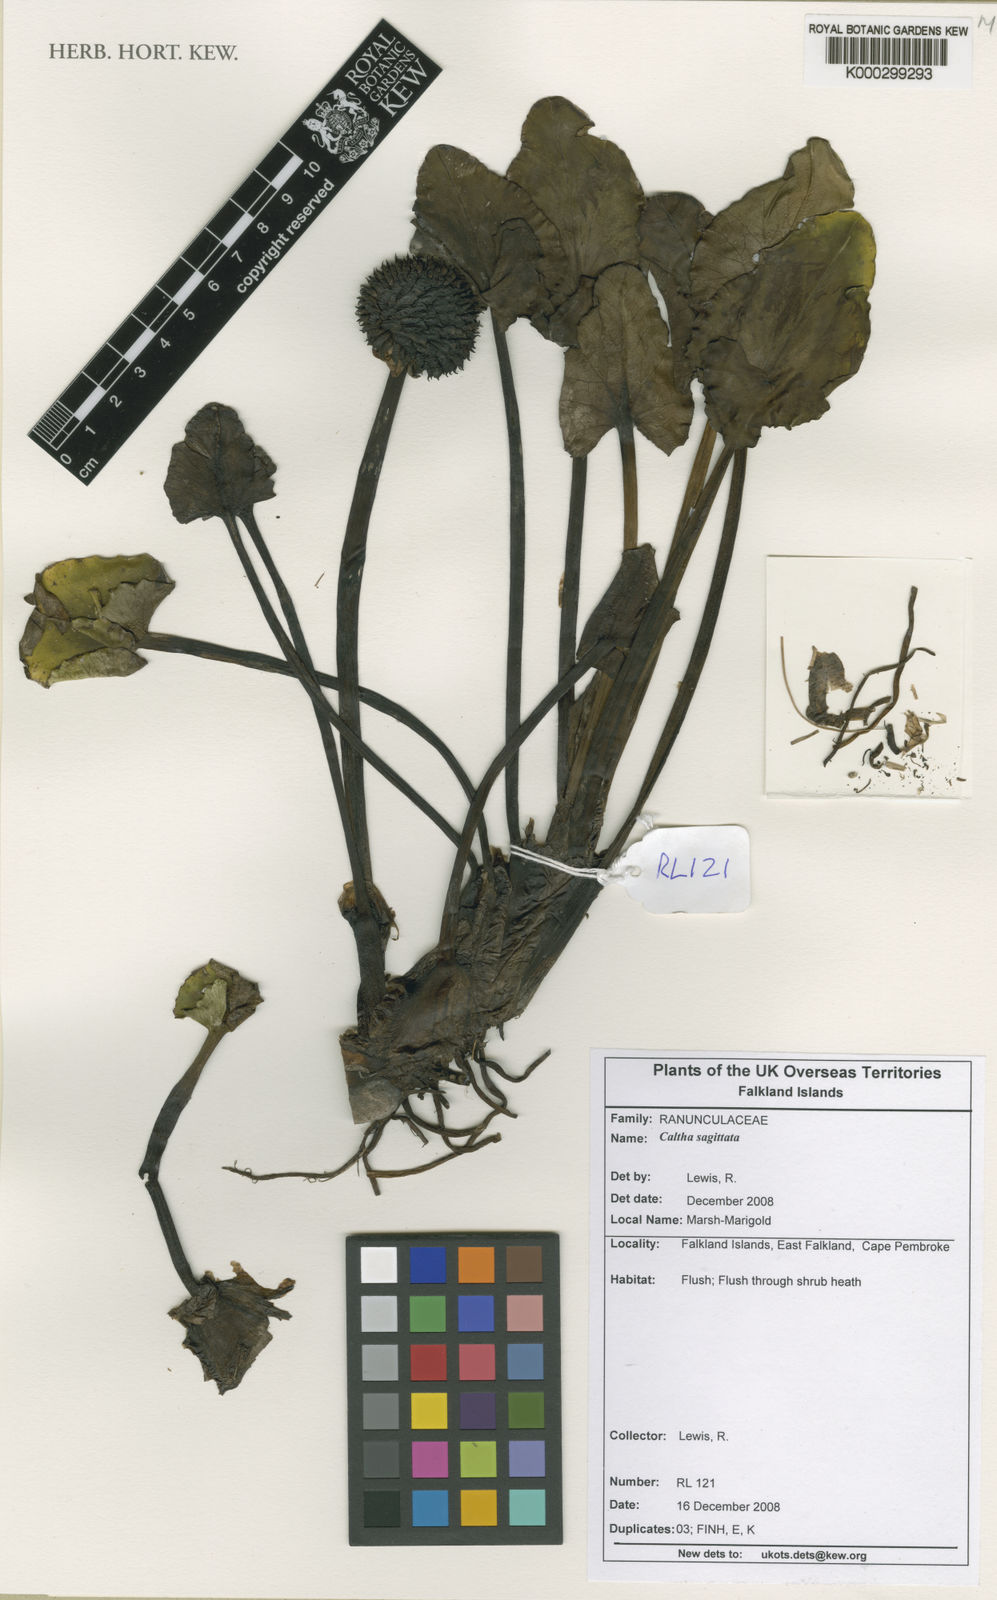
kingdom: Plantae
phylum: Tracheophyta
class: Magnoliopsida
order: Ranunculales
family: Ranunculaceae
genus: Caltha
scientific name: Caltha sagittata
